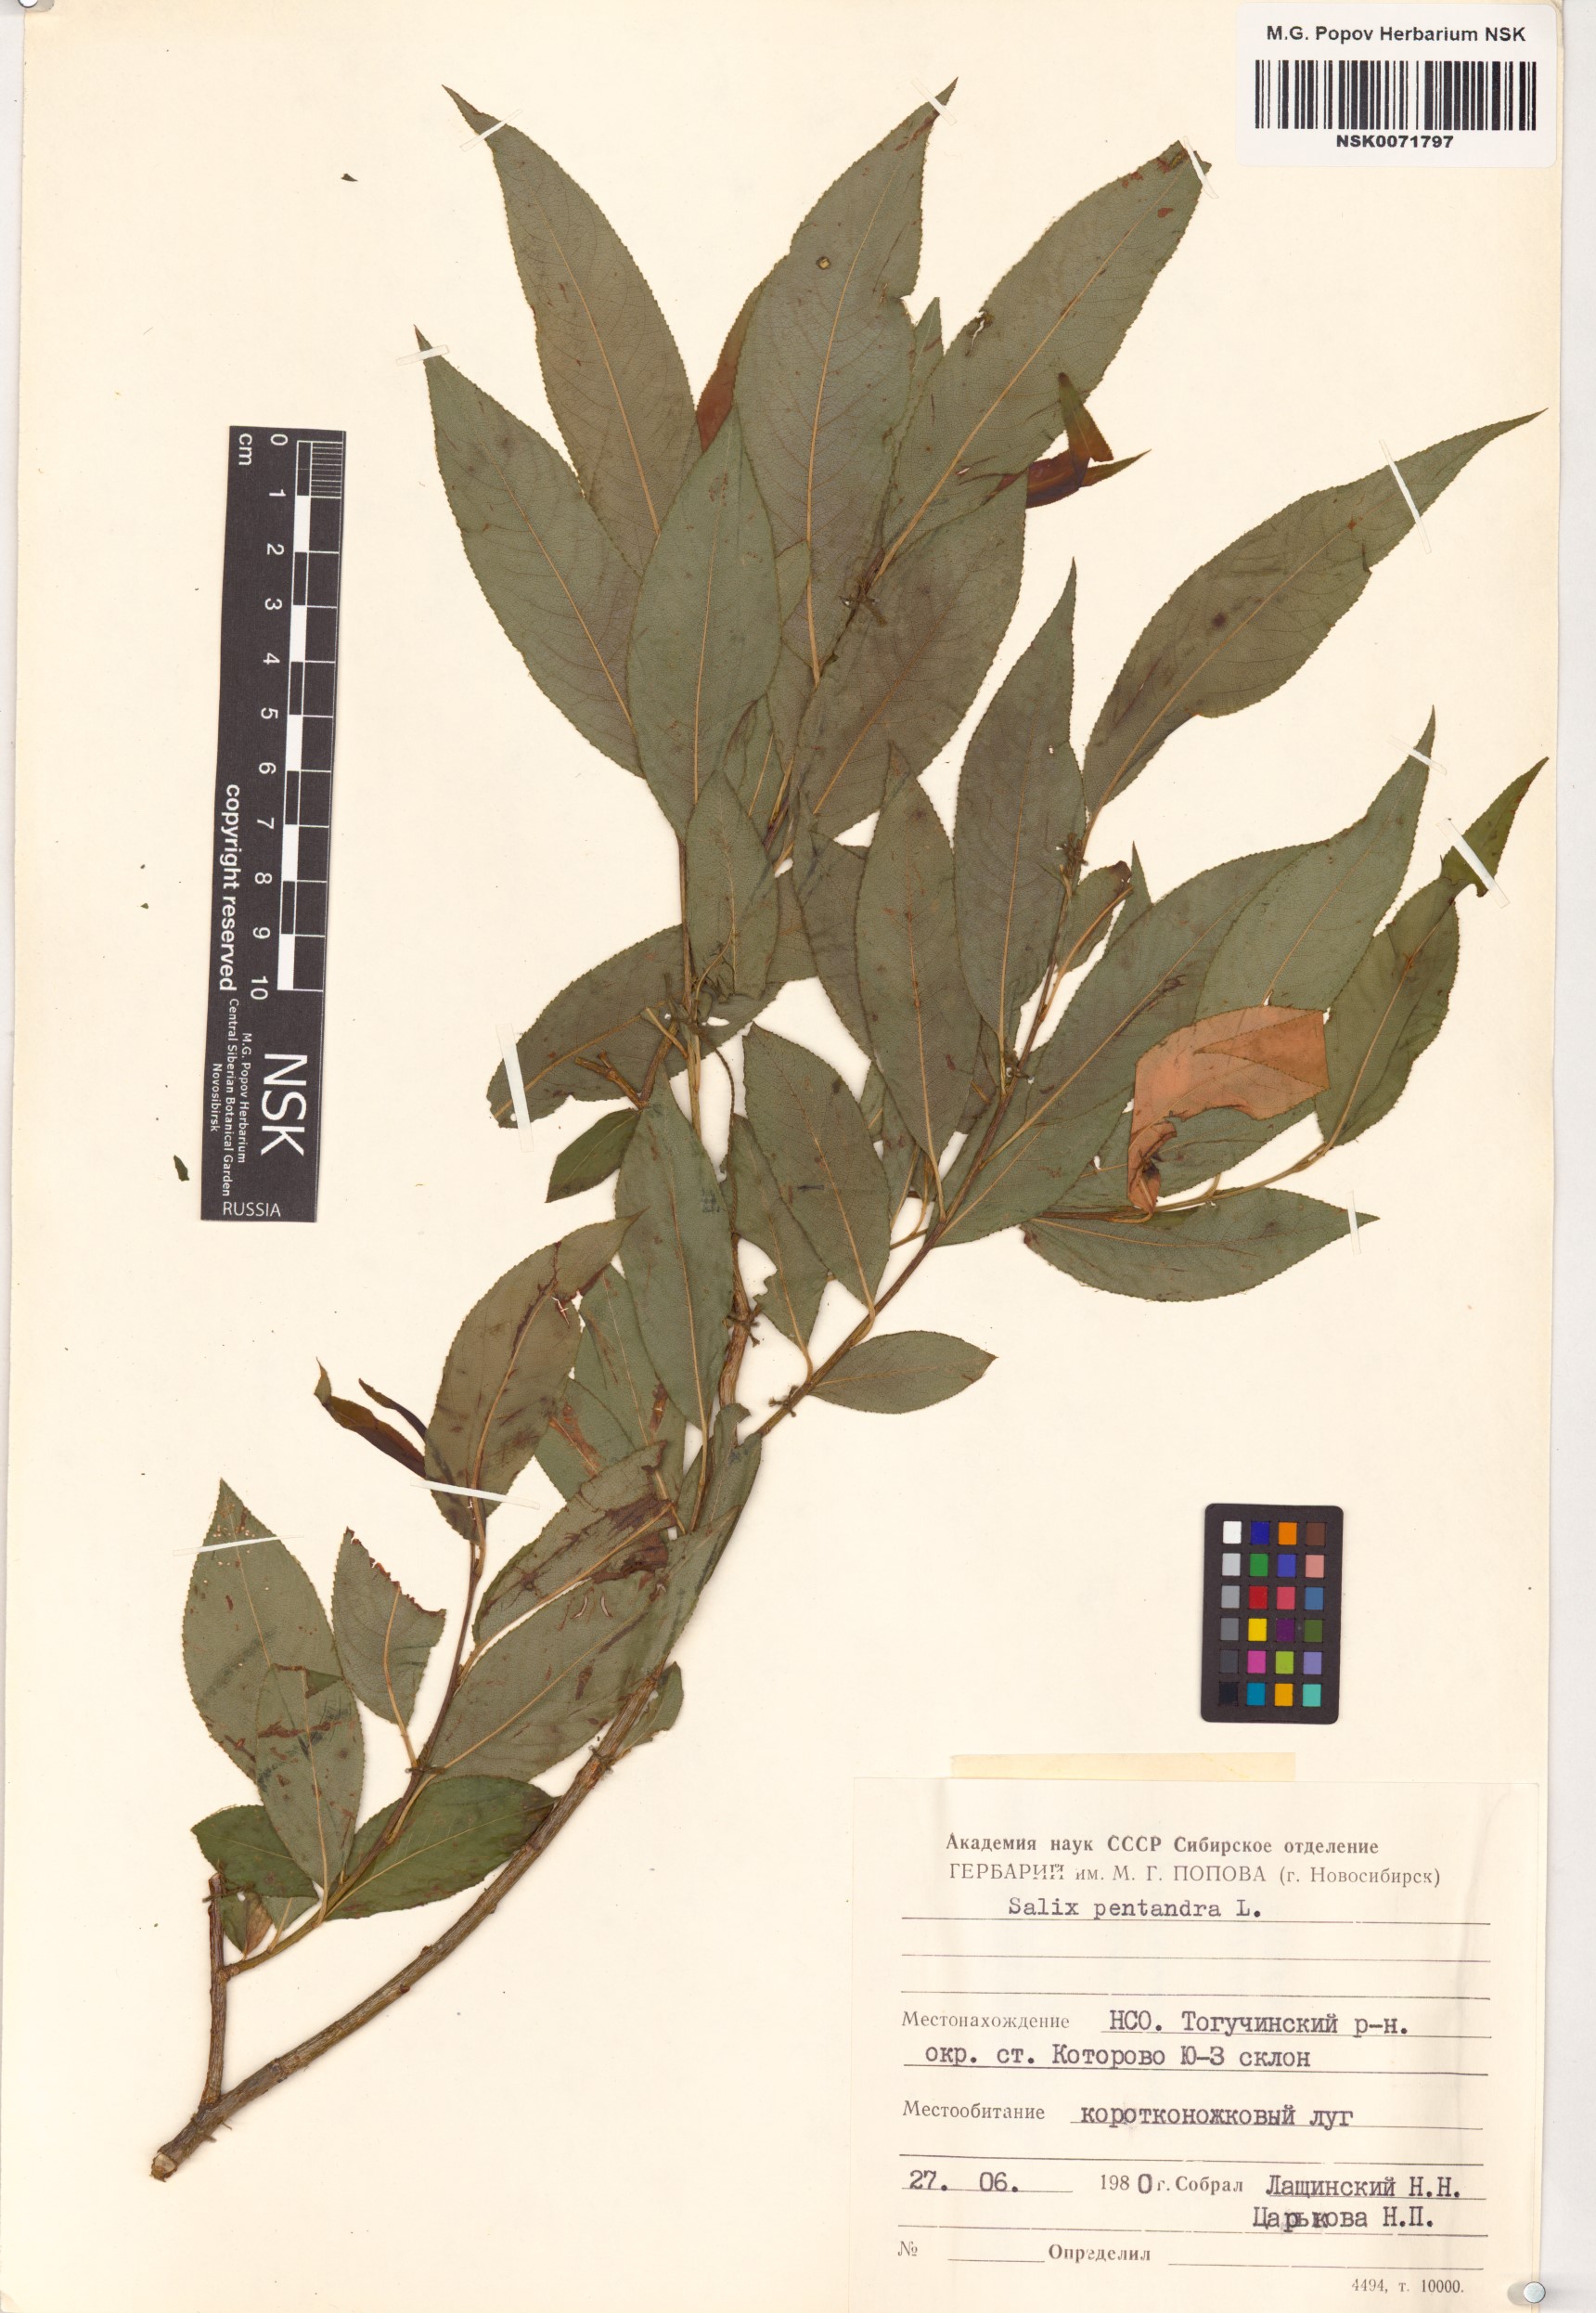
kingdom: Plantae
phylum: Tracheophyta
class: Magnoliopsida
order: Malpighiales
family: Salicaceae
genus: Salix
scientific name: Salix pentandra
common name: Bay willow
